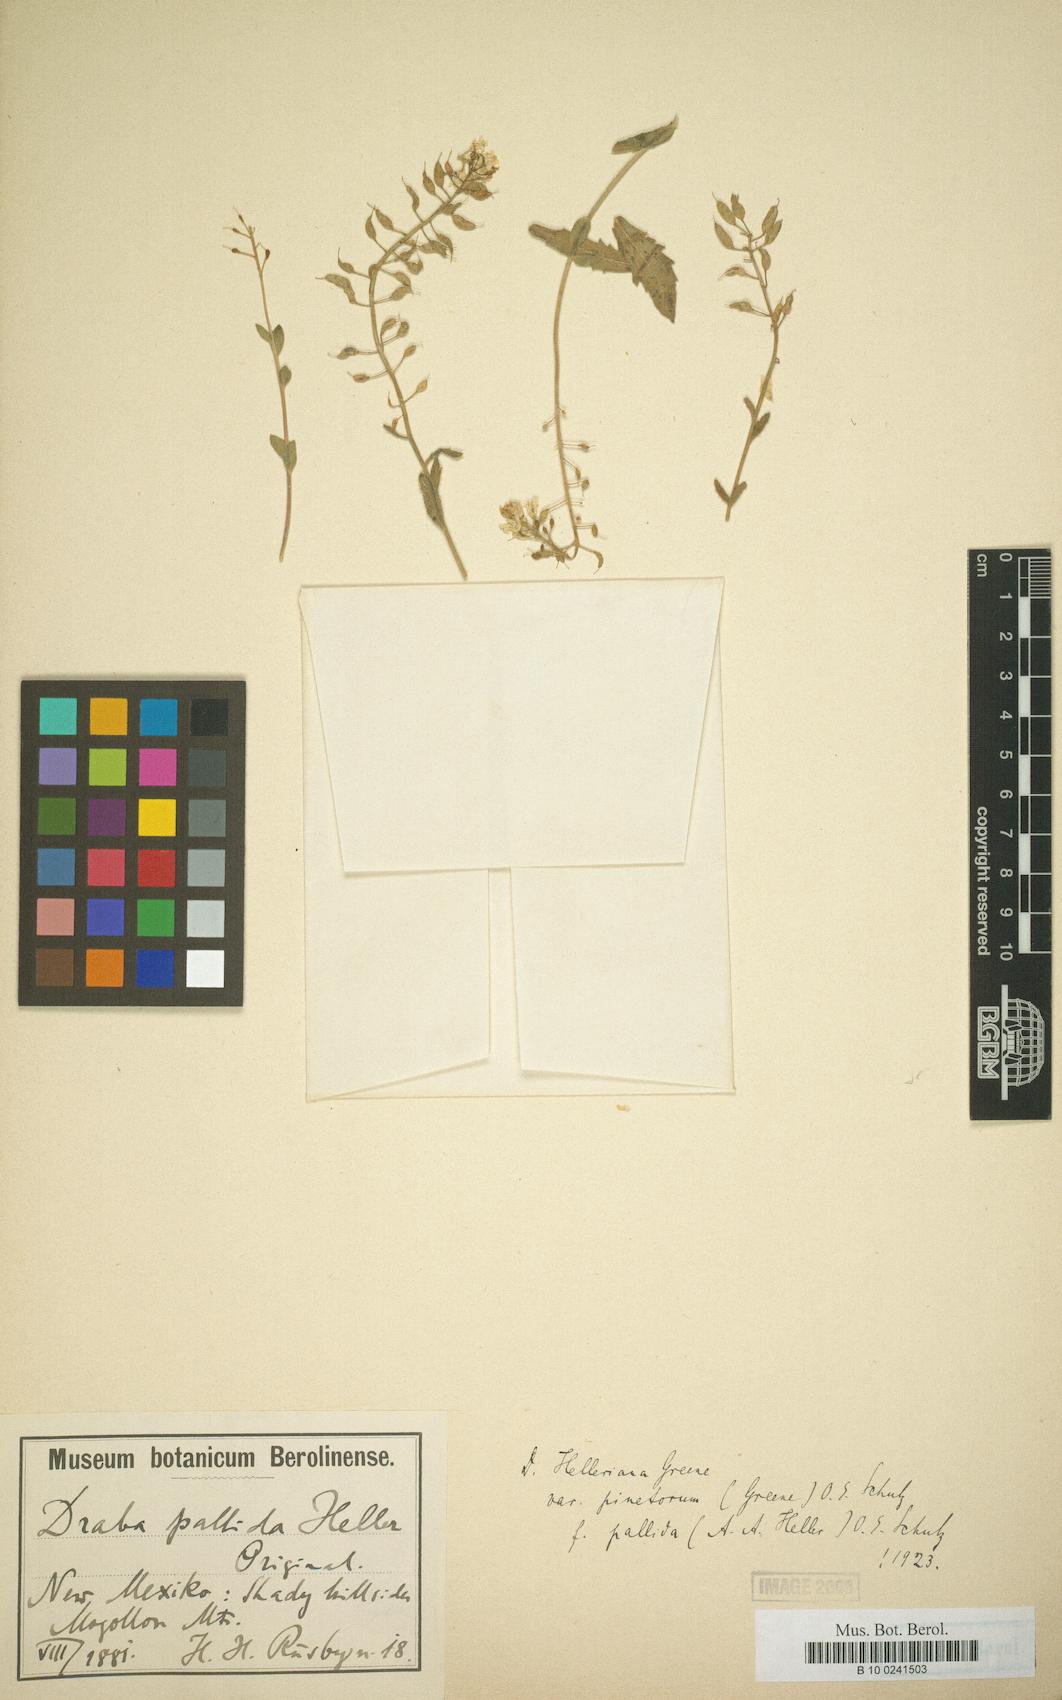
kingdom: Plantae
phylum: Tracheophyta
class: Magnoliopsida
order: Brassicales
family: Brassicaceae
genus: Draba
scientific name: Draba helleriana
